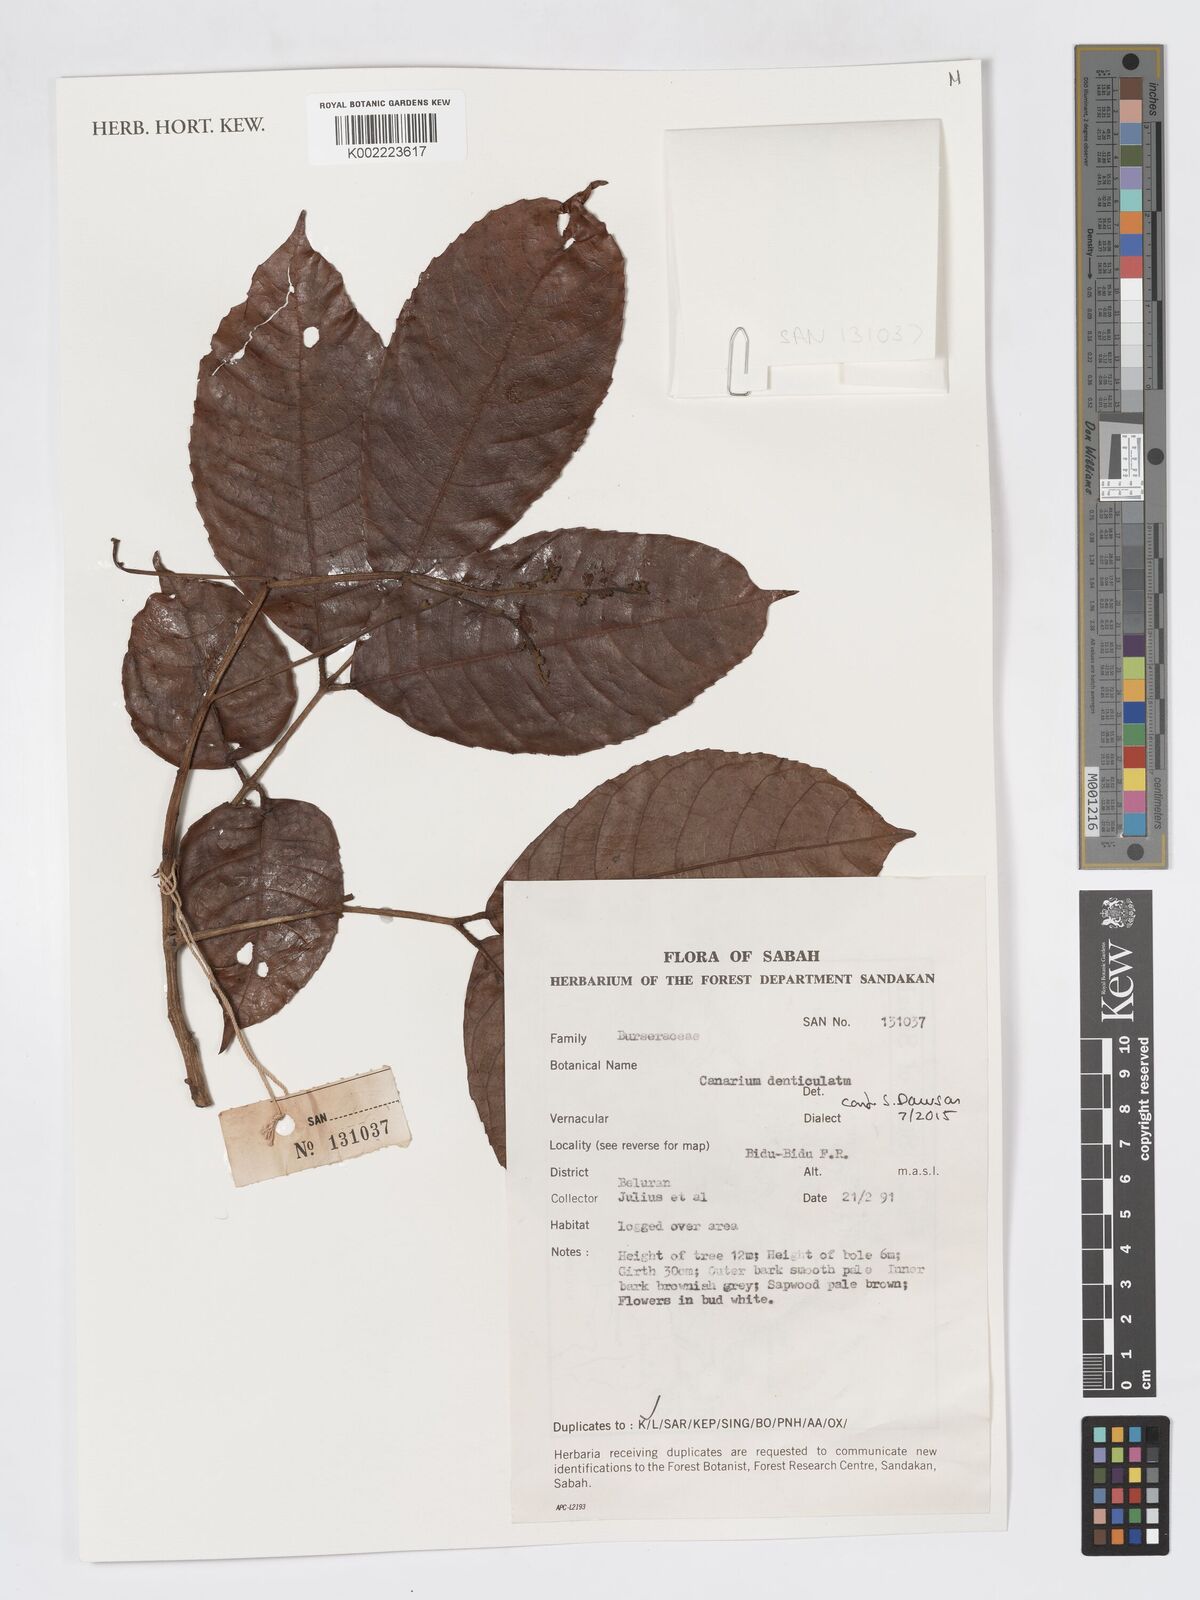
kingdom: Plantae
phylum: Tracheophyta
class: Magnoliopsida
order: Sapindales
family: Burseraceae
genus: Canarium
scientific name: Canarium denticulatum
